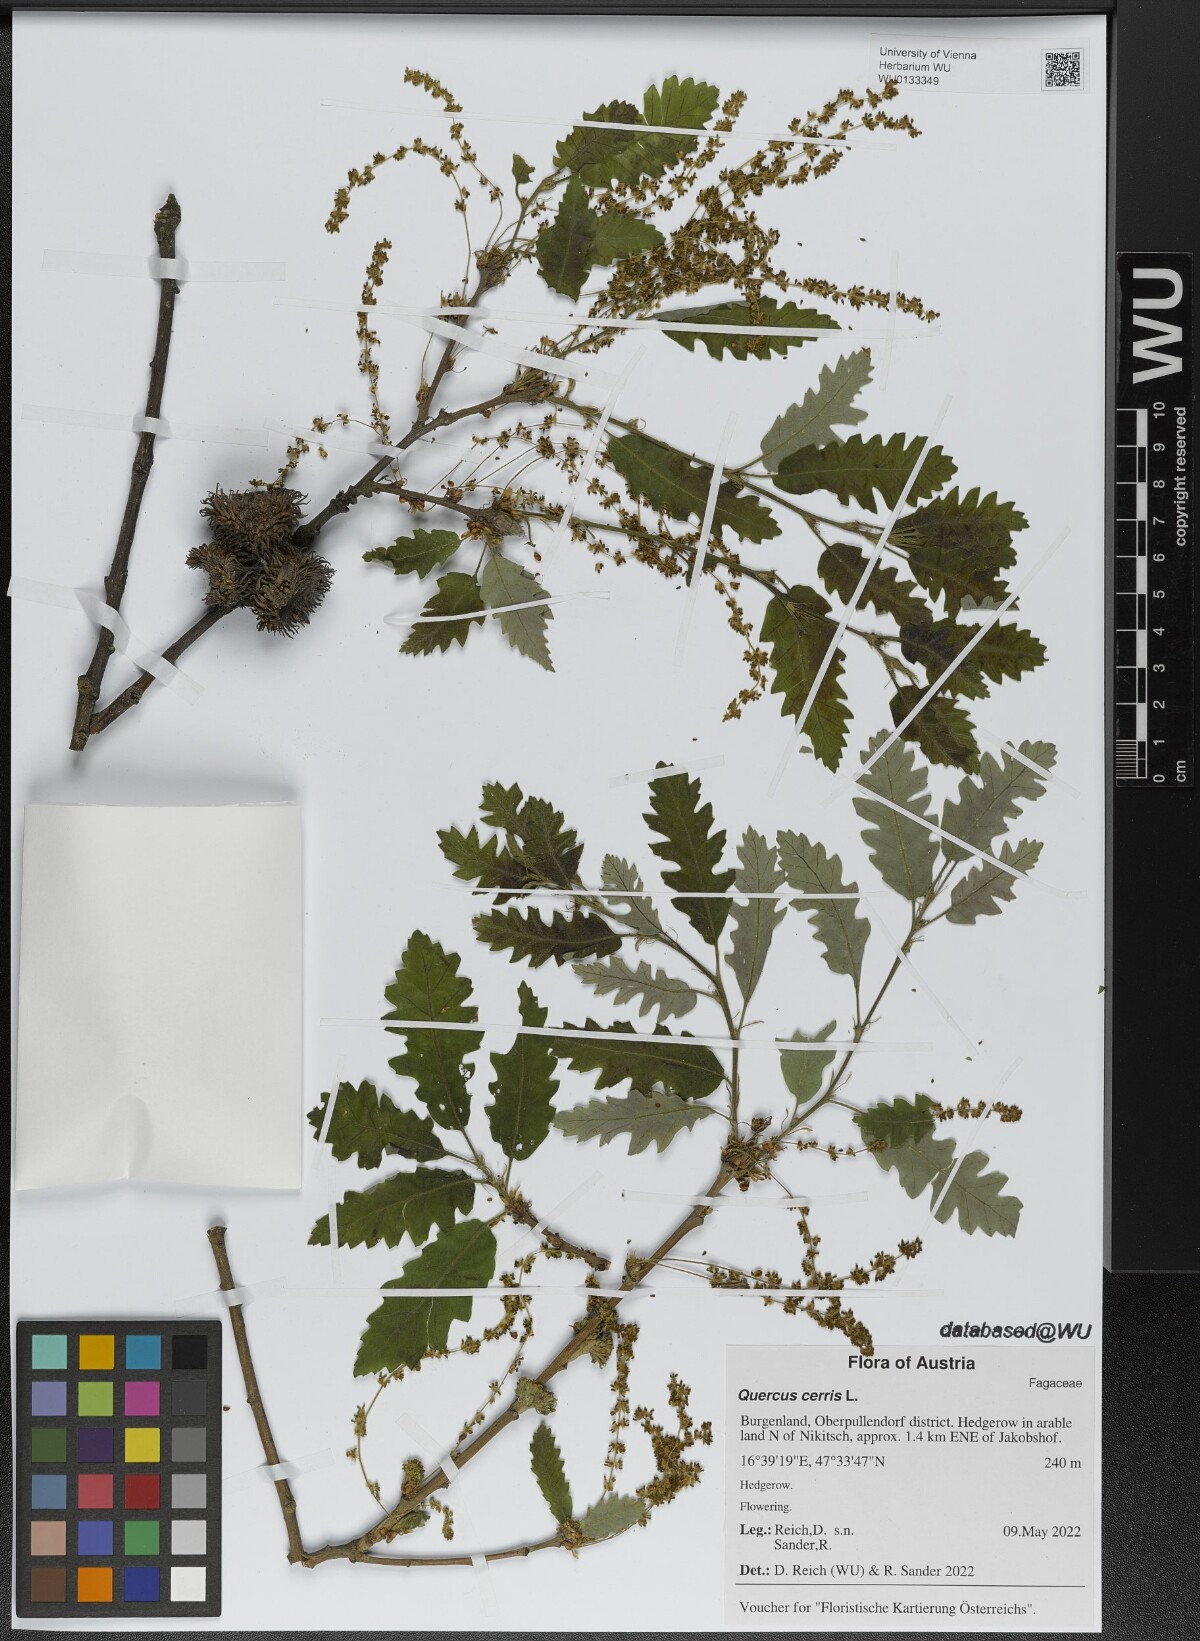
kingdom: Plantae
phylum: Tracheophyta
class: Magnoliopsida
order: Fagales
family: Fagaceae
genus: Quercus
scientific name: Quercus cerris
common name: Turkey oak
